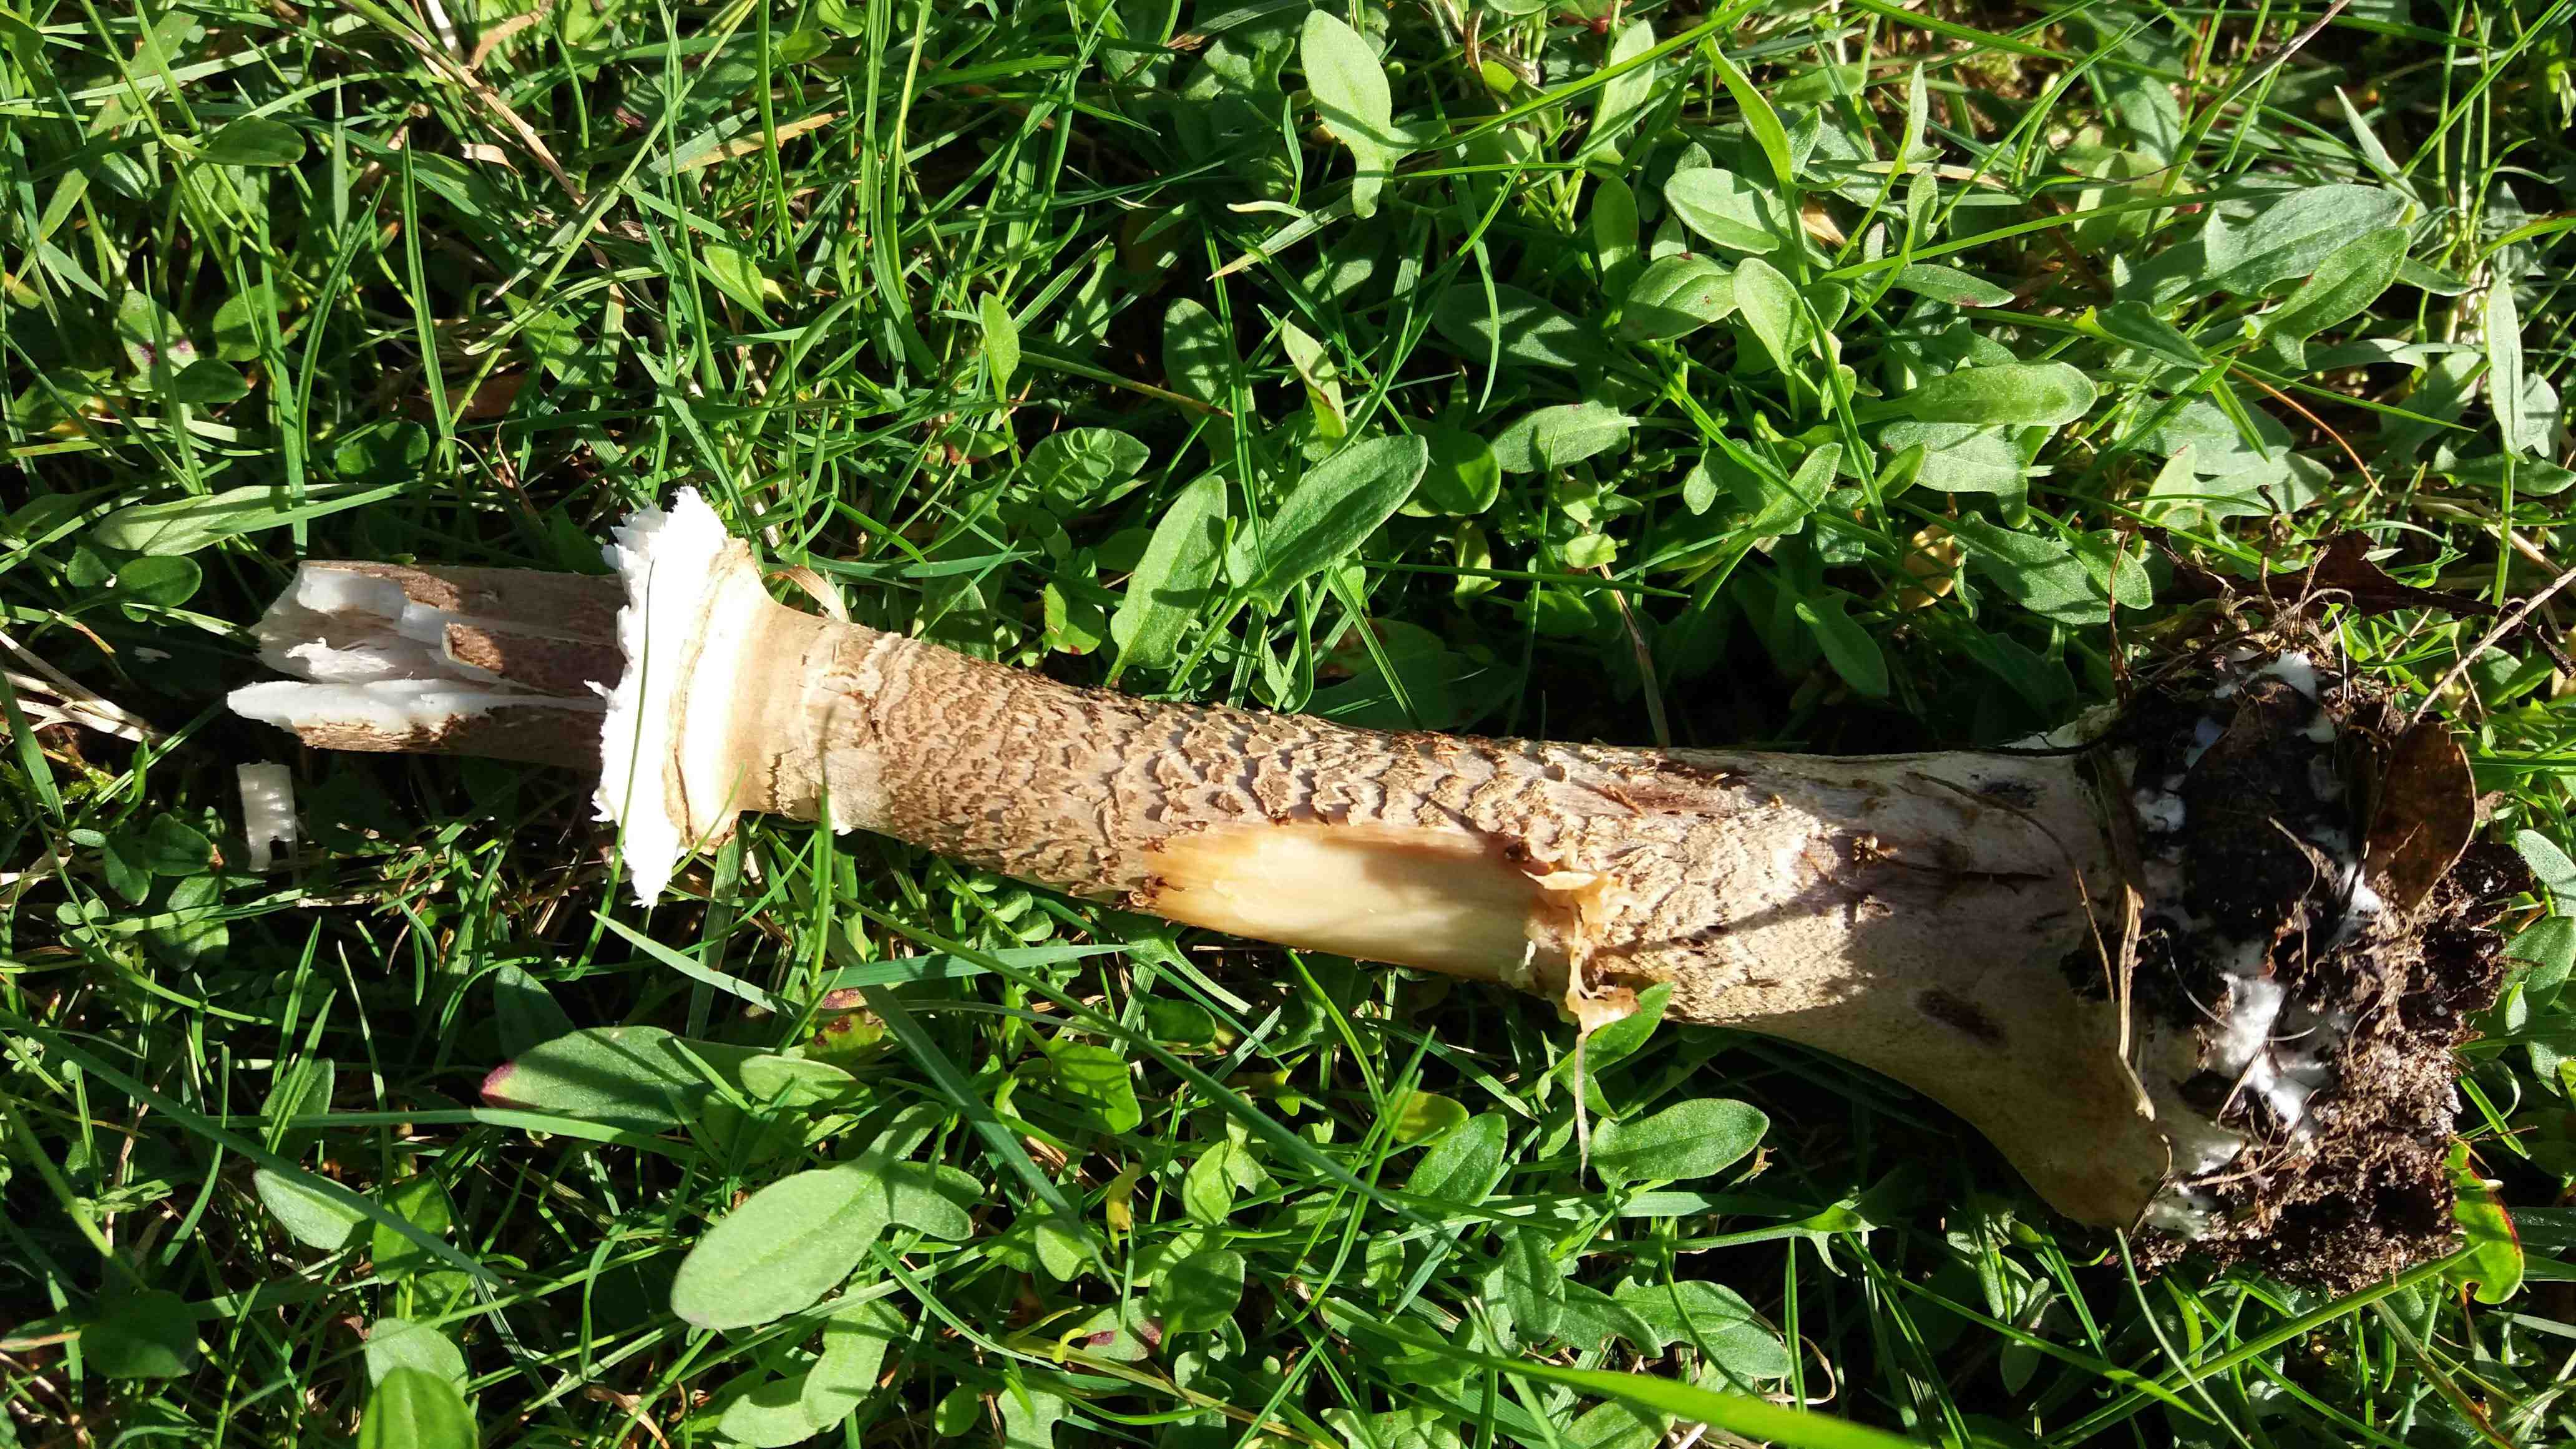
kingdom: Fungi
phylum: Basidiomycota
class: Agaricomycetes
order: Agaricales
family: Agaricaceae
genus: Macrolepiota
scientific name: Macrolepiota
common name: kæmpeparasolhat
